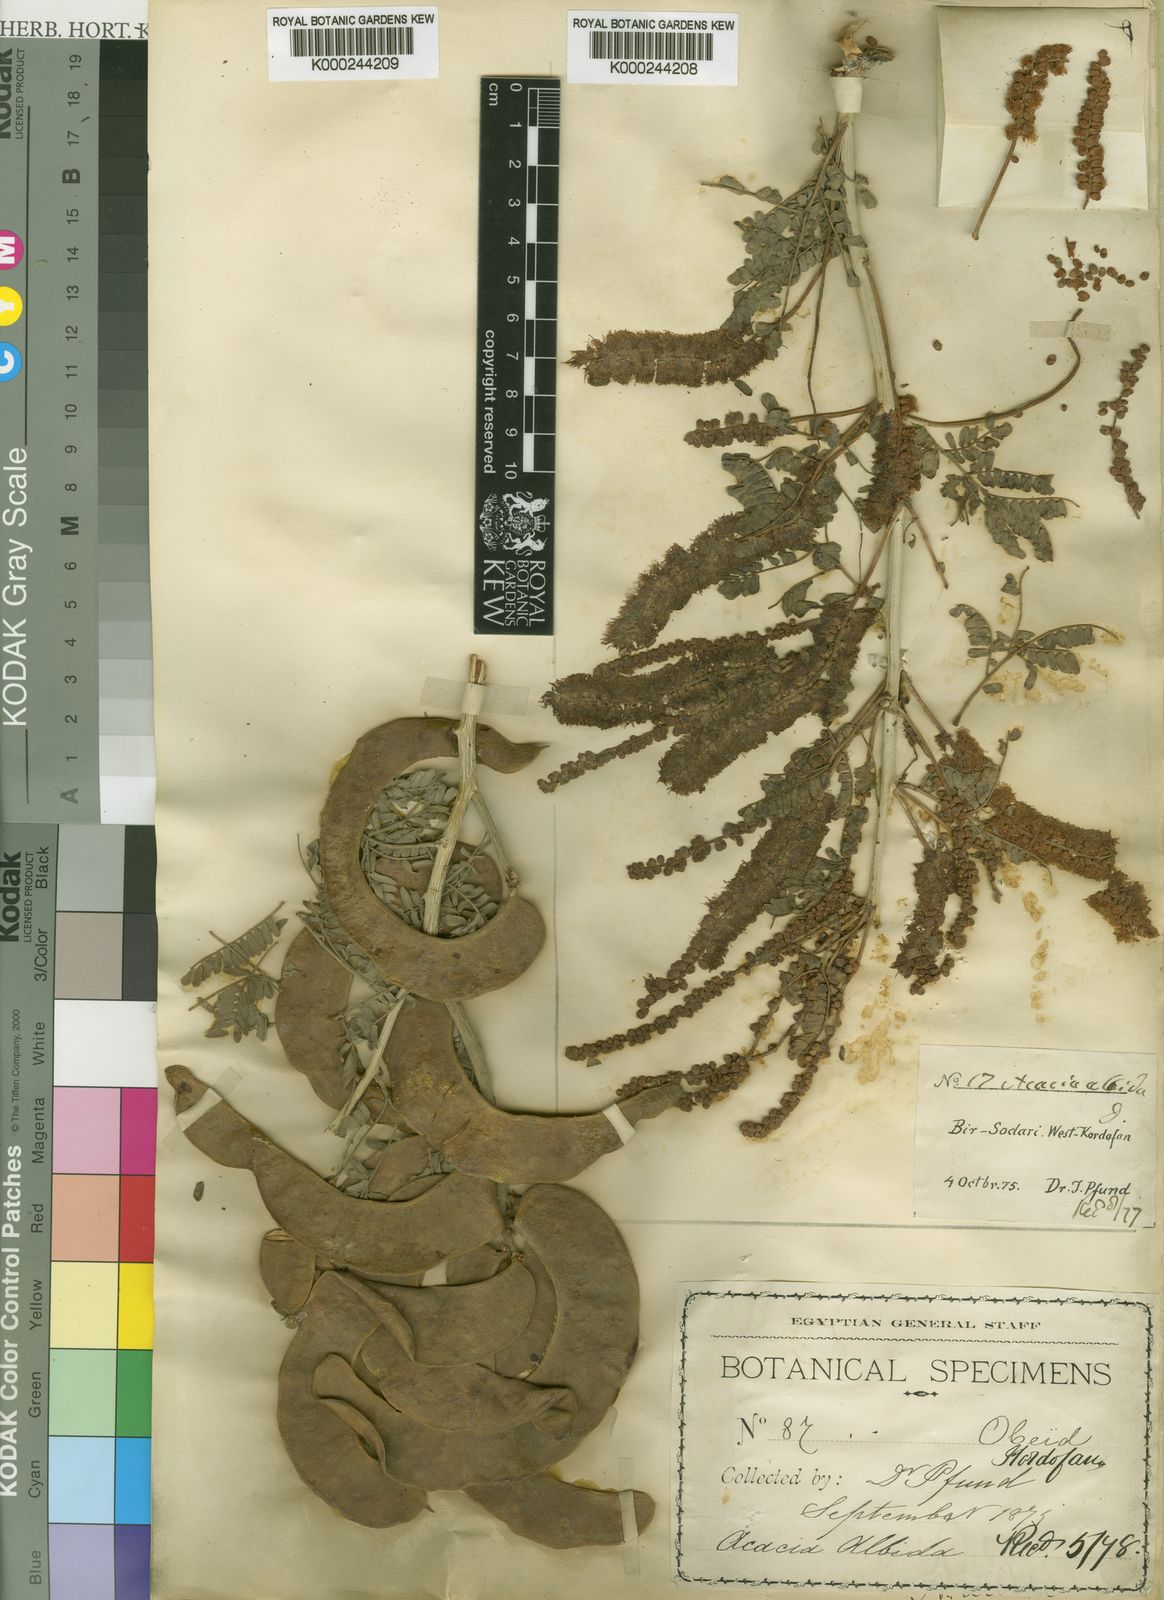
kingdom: Plantae
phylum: Tracheophyta
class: Magnoliopsida
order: Fabales
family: Fabaceae
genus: Faidherbia
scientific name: Faidherbia albida
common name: Anatree
